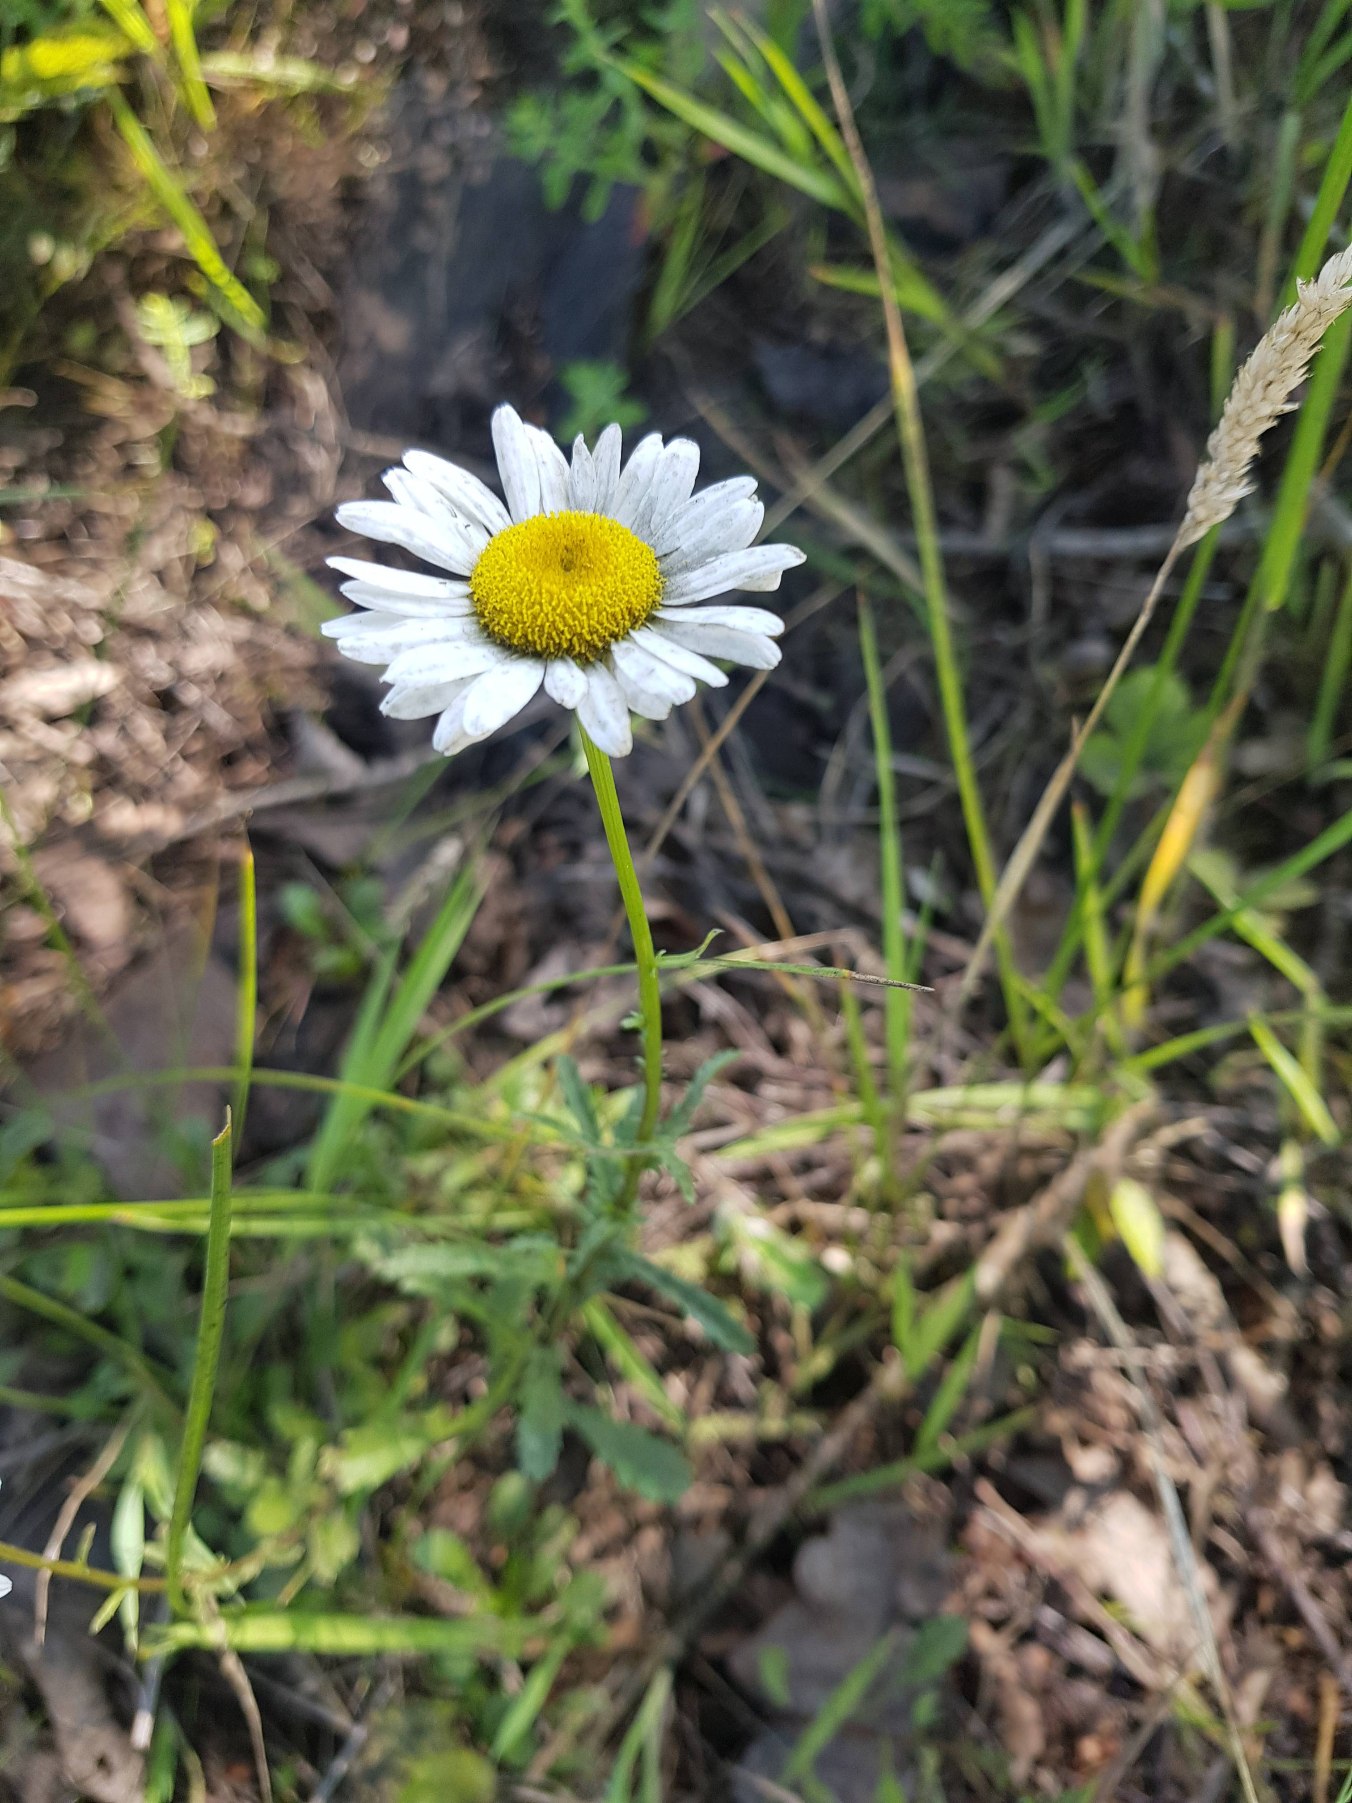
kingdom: Plantae
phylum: Tracheophyta
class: Magnoliopsida
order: Asterales
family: Asteraceae
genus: Leucanthemum
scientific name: Leucanthemum vulgare
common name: Hvid okseøje
